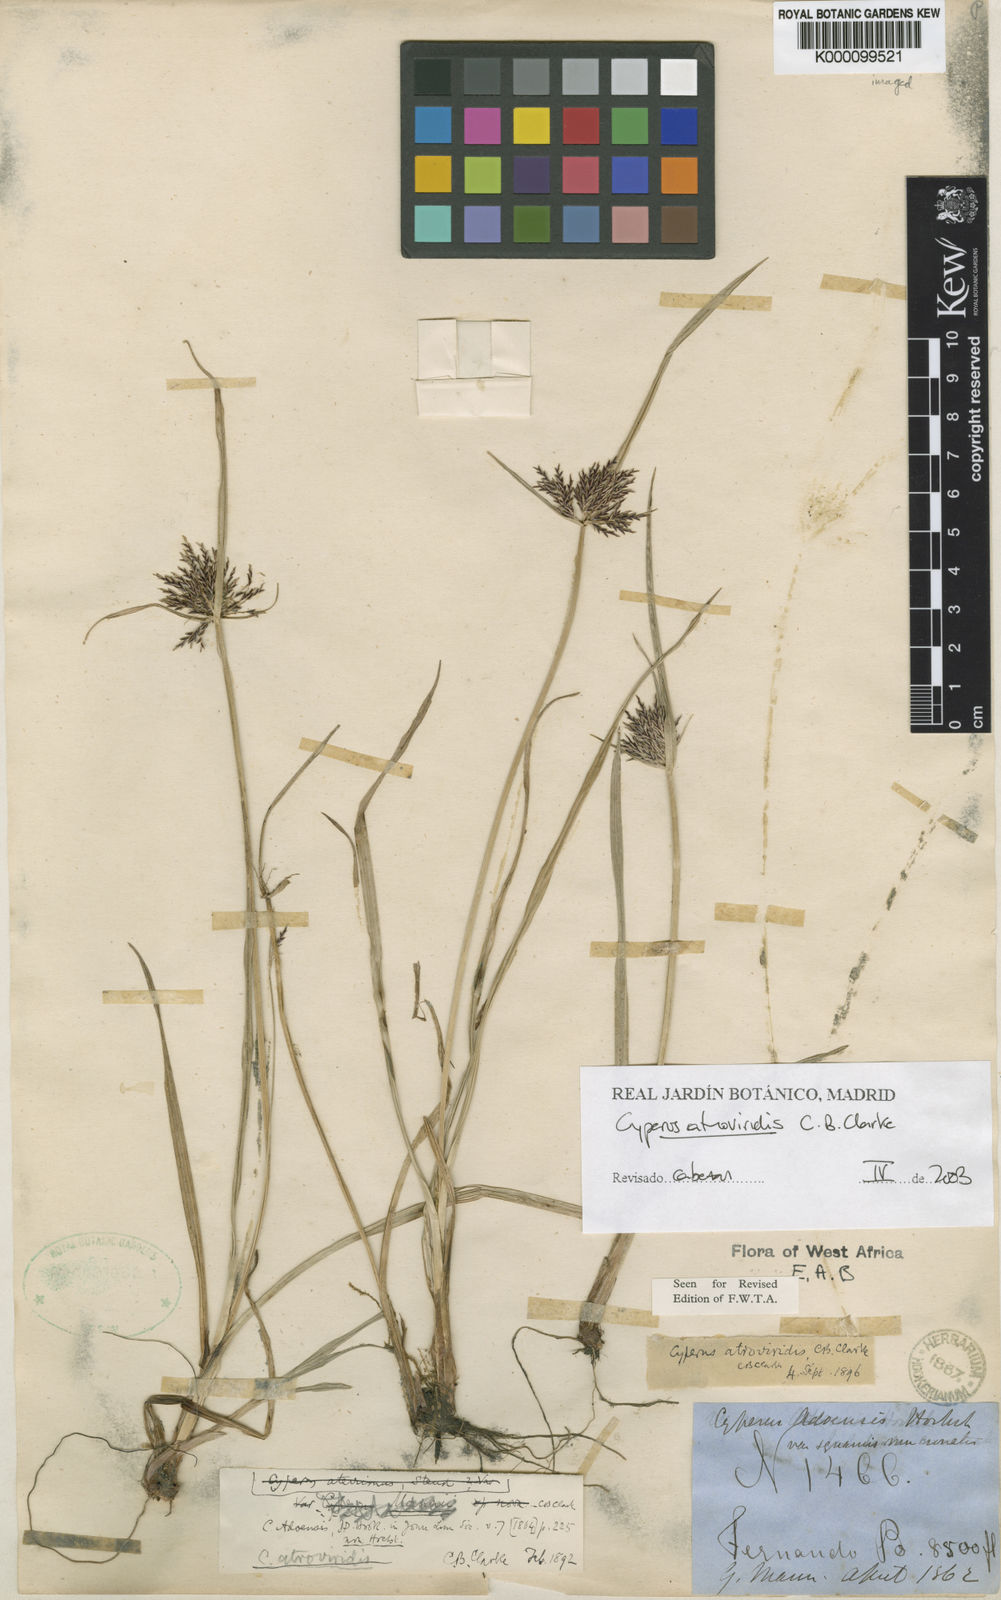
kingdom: Plantae
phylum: Tracheophyta
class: Liliopsida
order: Poales
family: Cyperaceae
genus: Cyperus
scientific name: Cyperus aterrimus
